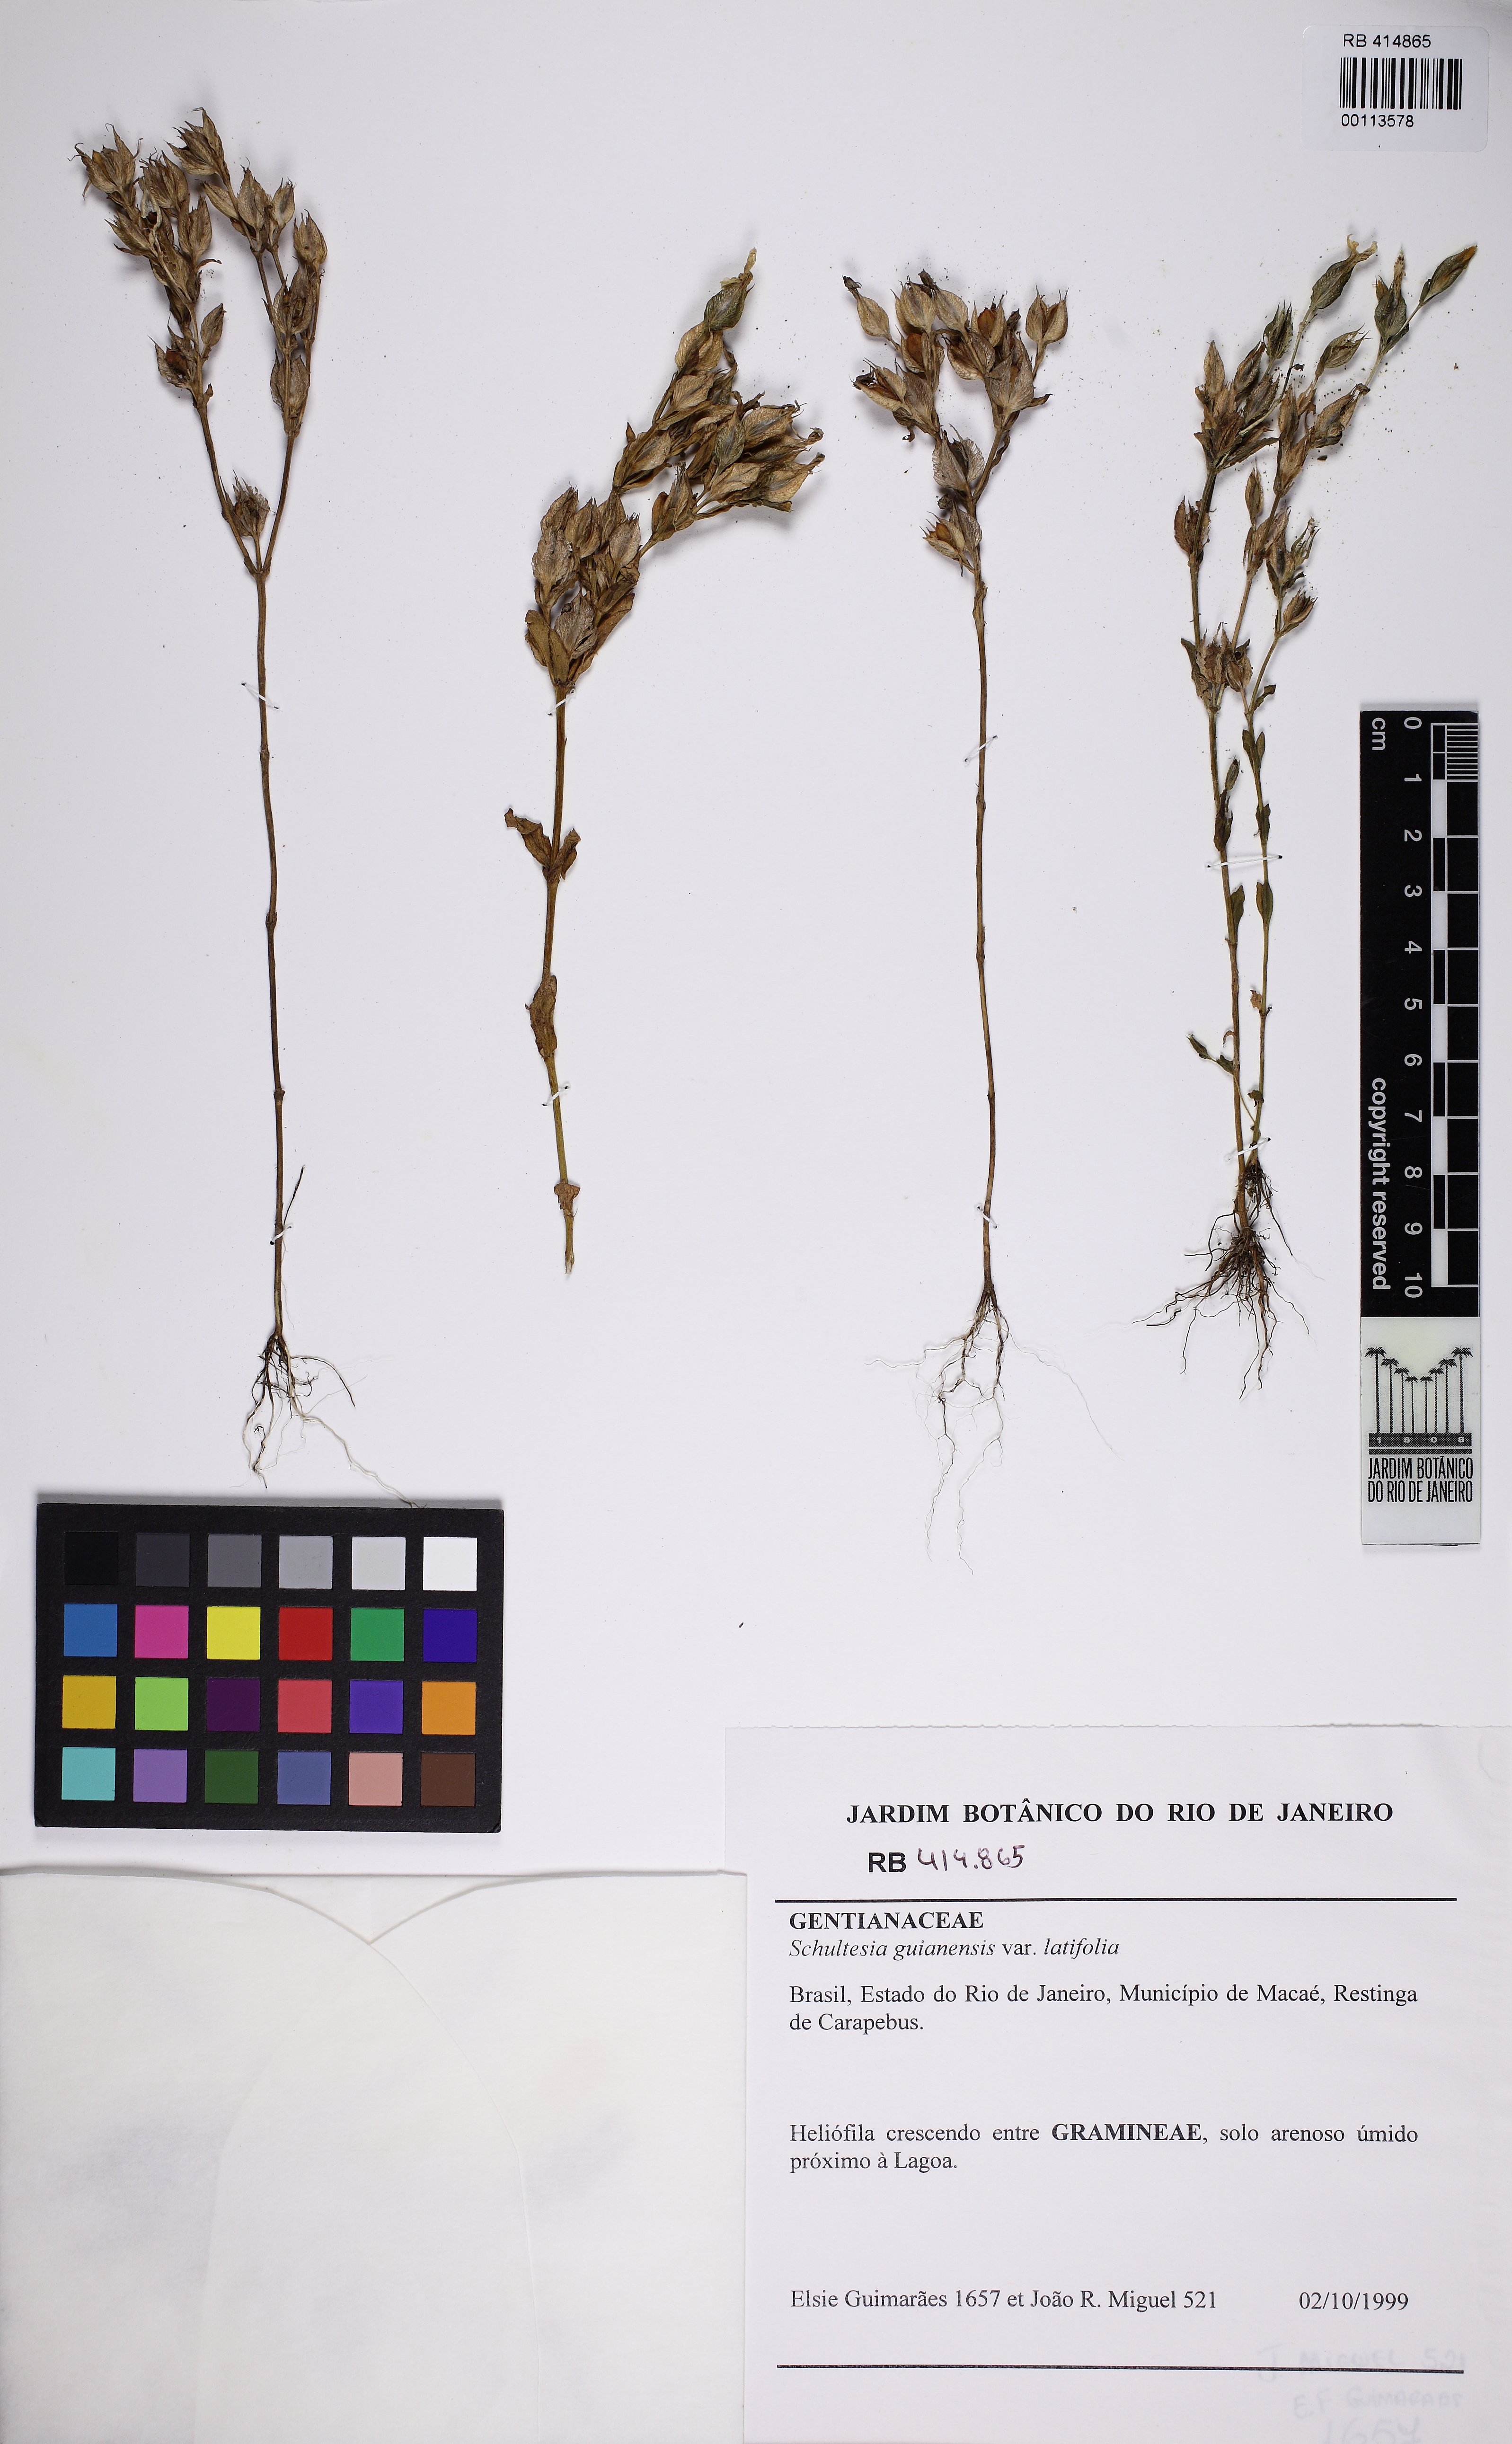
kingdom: Plantae
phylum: Tracheophyta
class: Magnoliopsida
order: Gentianales
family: Gentianaceae
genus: Schultesia
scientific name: Schultesia guianensis
